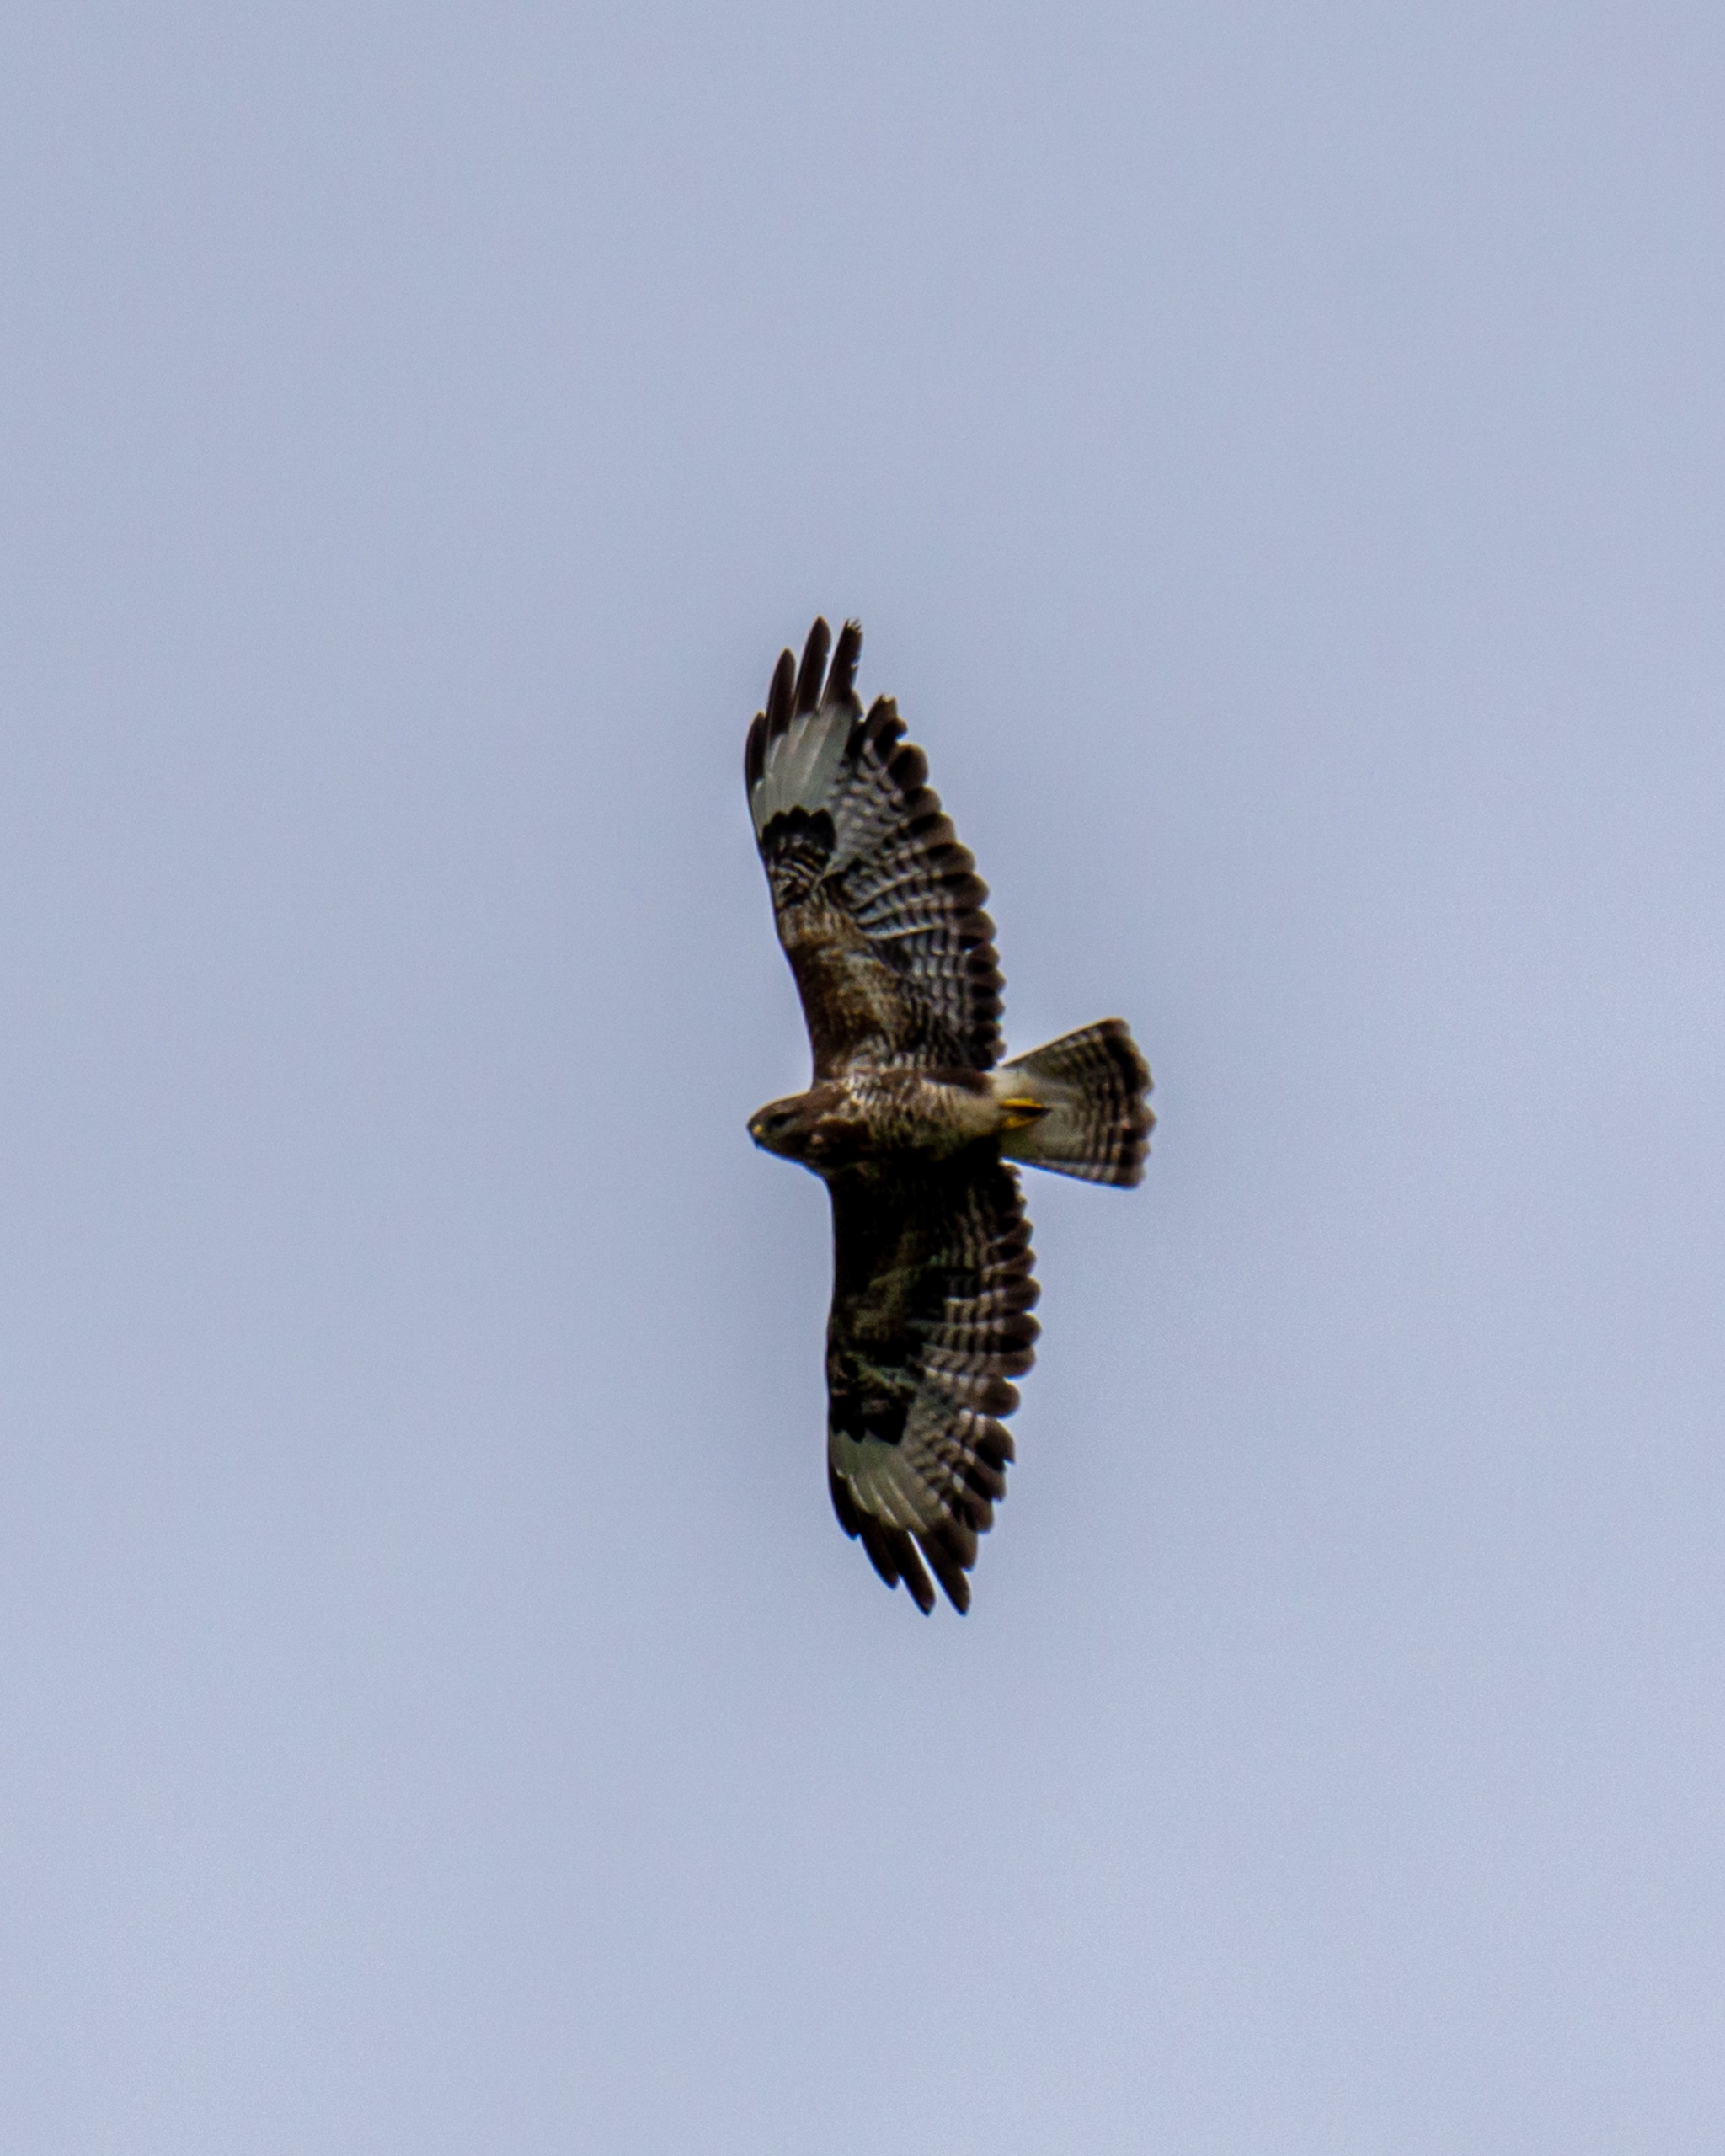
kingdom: Animalia
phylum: Chordata
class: Aves
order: Accipitriformes
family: Accipitridae
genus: Buteo
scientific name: Buteo buteo
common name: Musvåge
